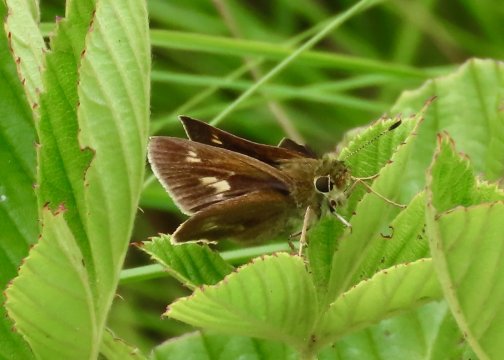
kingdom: Animalia
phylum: Arthropoda
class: Insecta
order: Lepidoptera
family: Hesperiidae
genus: Polites
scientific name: Polites egeremet
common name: Northern Broken-Dash
